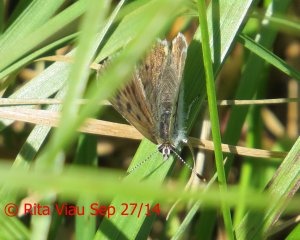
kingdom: Animalia
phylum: Arthropoda
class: Insecta
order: Lepidoptera
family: Sesiidae
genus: Sesia
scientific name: Sesia Lycaena epixanthe
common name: Bog Copper
